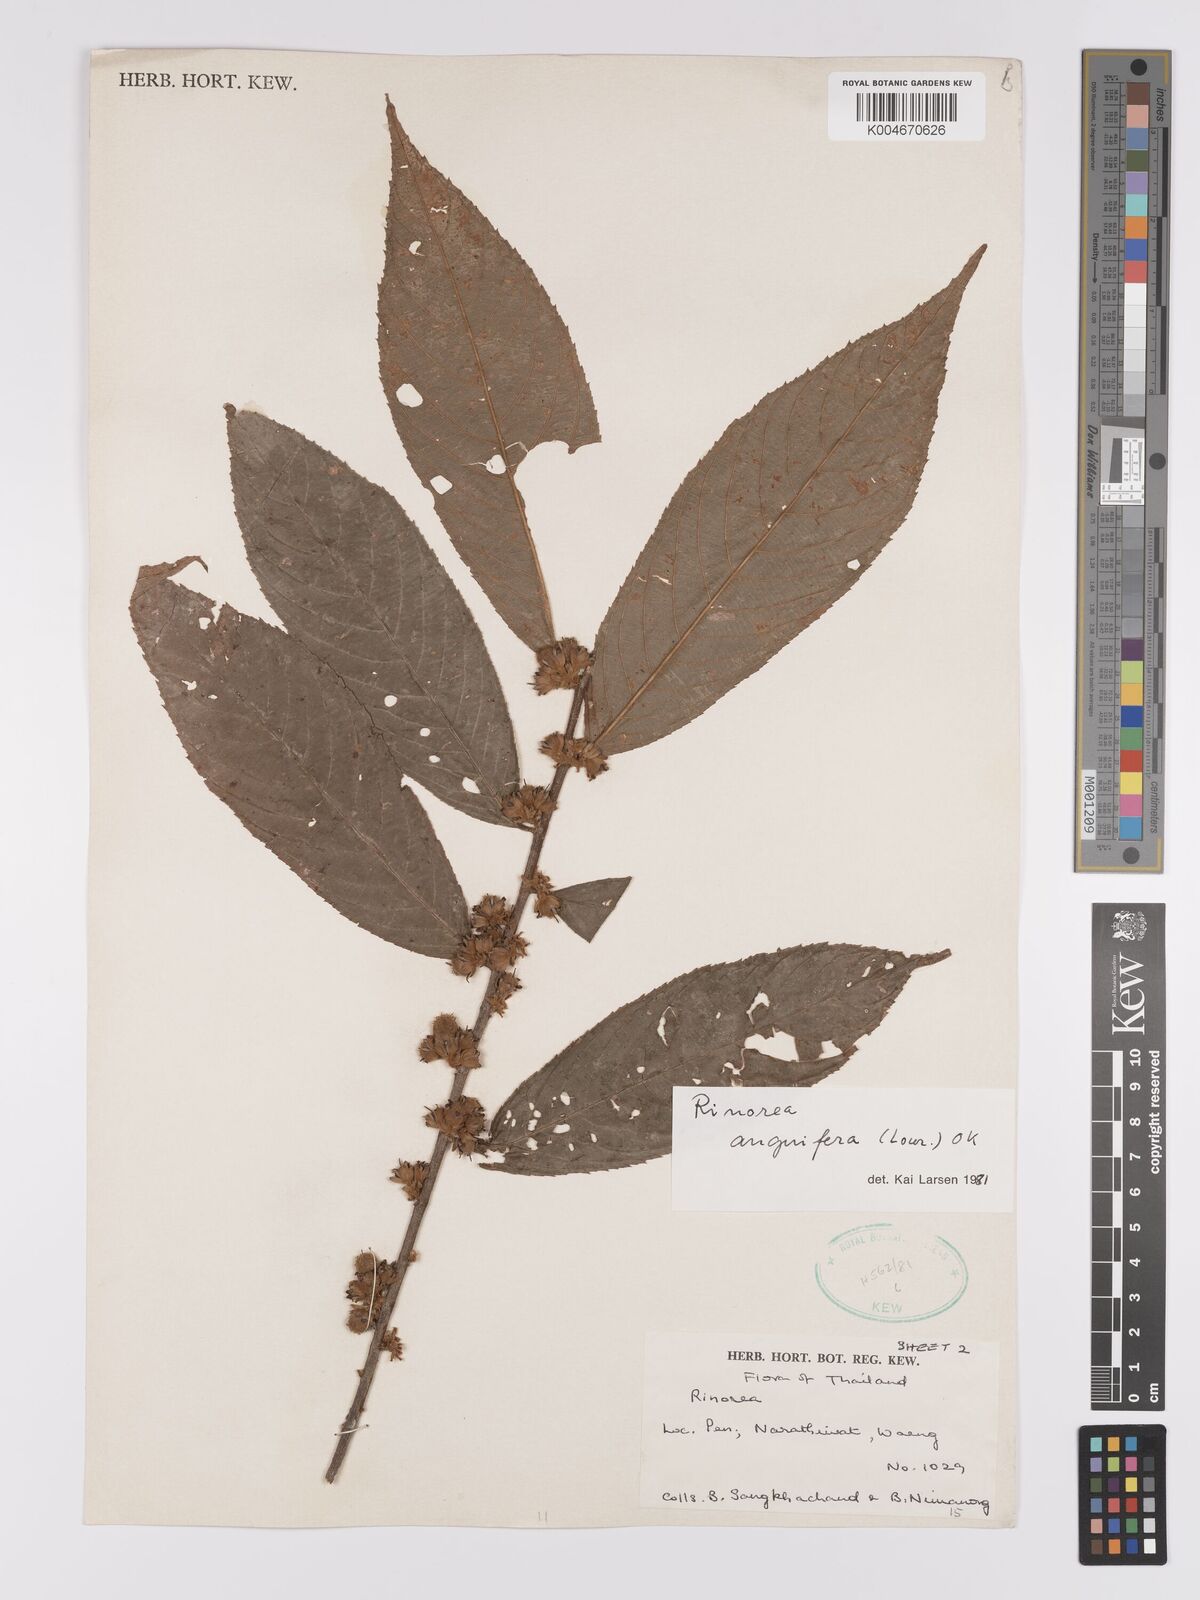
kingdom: Plantae
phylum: Tracheophyta
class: Magnoliopsida
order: Malpighiales
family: Violaceae
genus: Rinorea
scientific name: Rinorea anguifera
